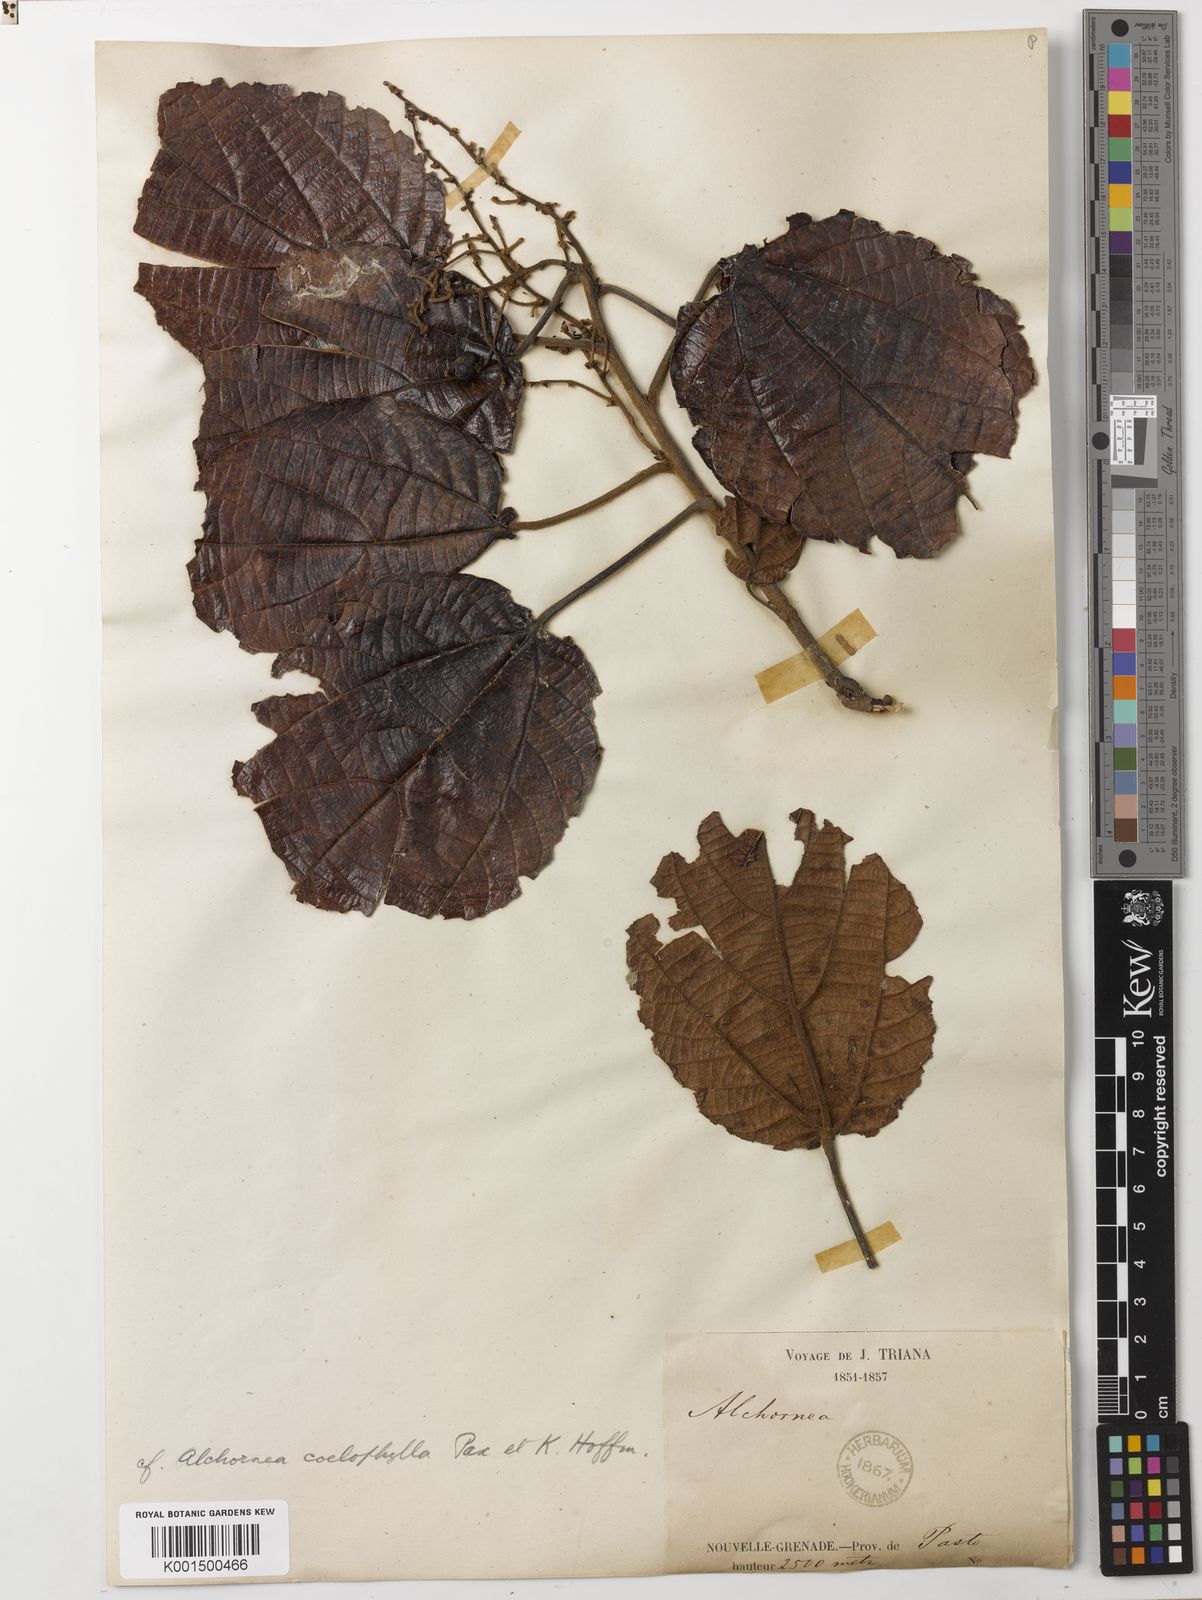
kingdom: Plantae
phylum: Tracheophyta
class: Magnoliopsida
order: Malpighiales
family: Euphorbiaceae
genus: Alchornea
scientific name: Alchornea coelophylla
